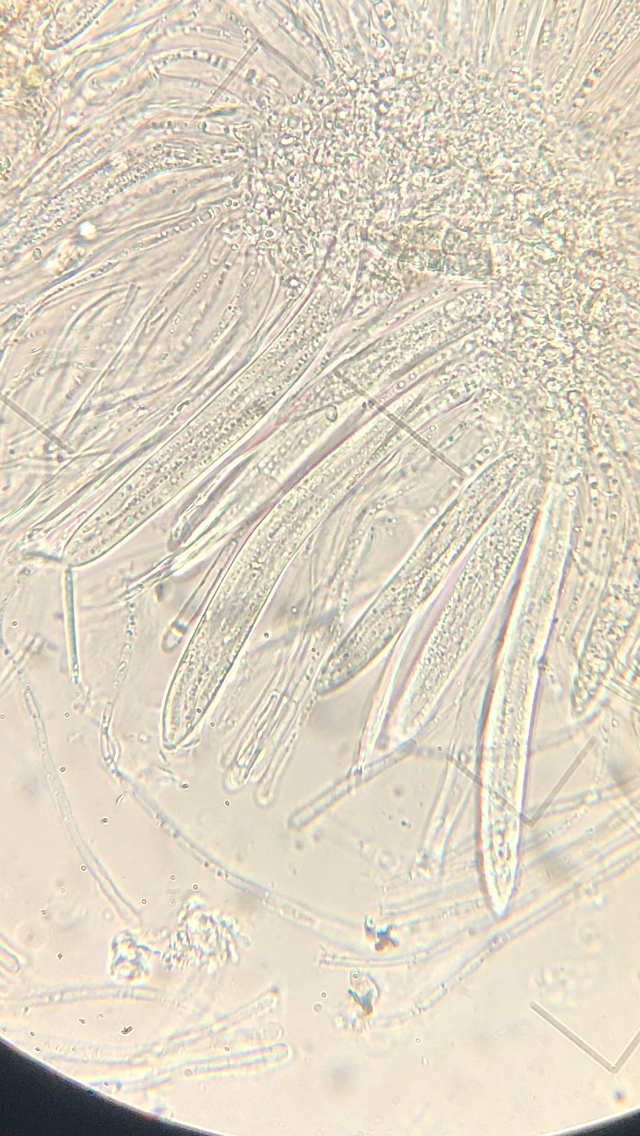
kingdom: Fungi
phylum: Ascomycota
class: Leotiomycetes
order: Rhytismatales
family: Rhytismataceae
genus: Lophodermium
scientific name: Lophodermium pinastri
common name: fyrre-fureplet
